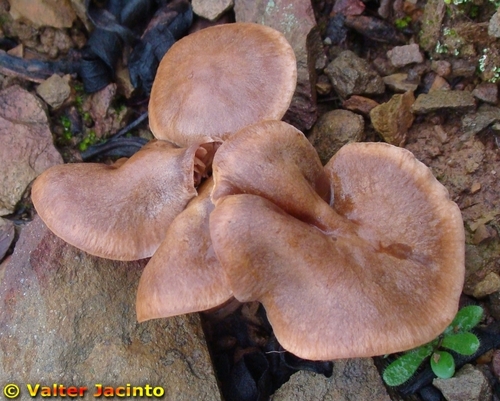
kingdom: Fungi
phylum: Basidiomycota
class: Agaricomycetes
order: Agaricales
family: Cortinariaceae
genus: Cortinarius
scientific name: Cortinarius
